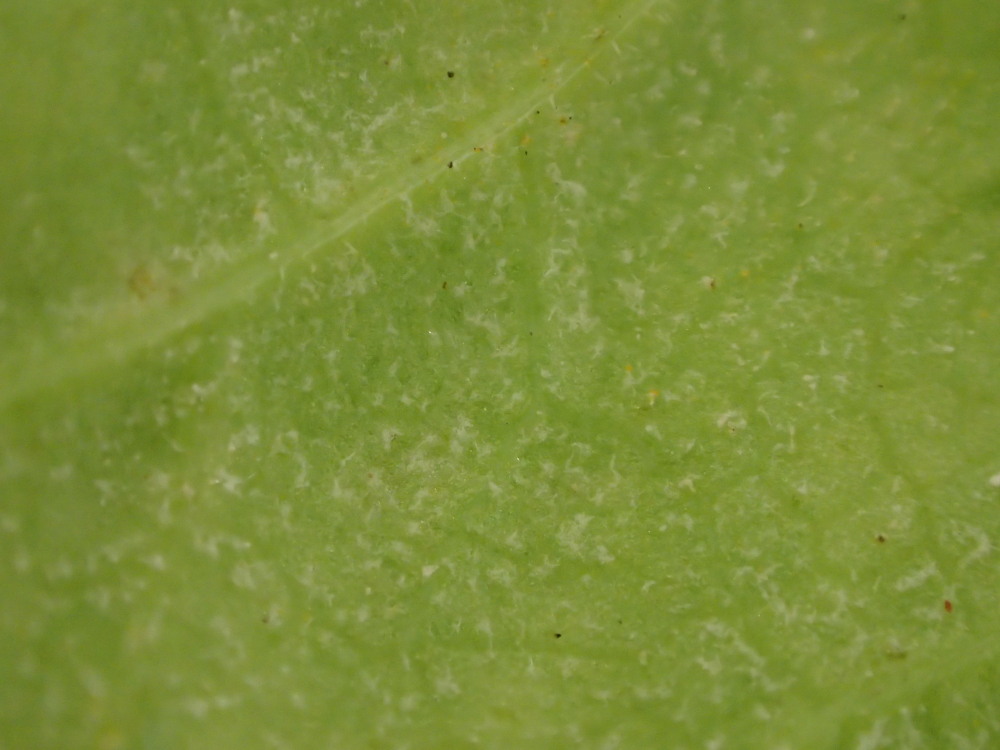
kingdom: Chromista
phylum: Oomycota
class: Peronosporea
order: Peronosporales
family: Peronosporaceae
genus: Peronospora
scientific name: Peronospora crustosa
